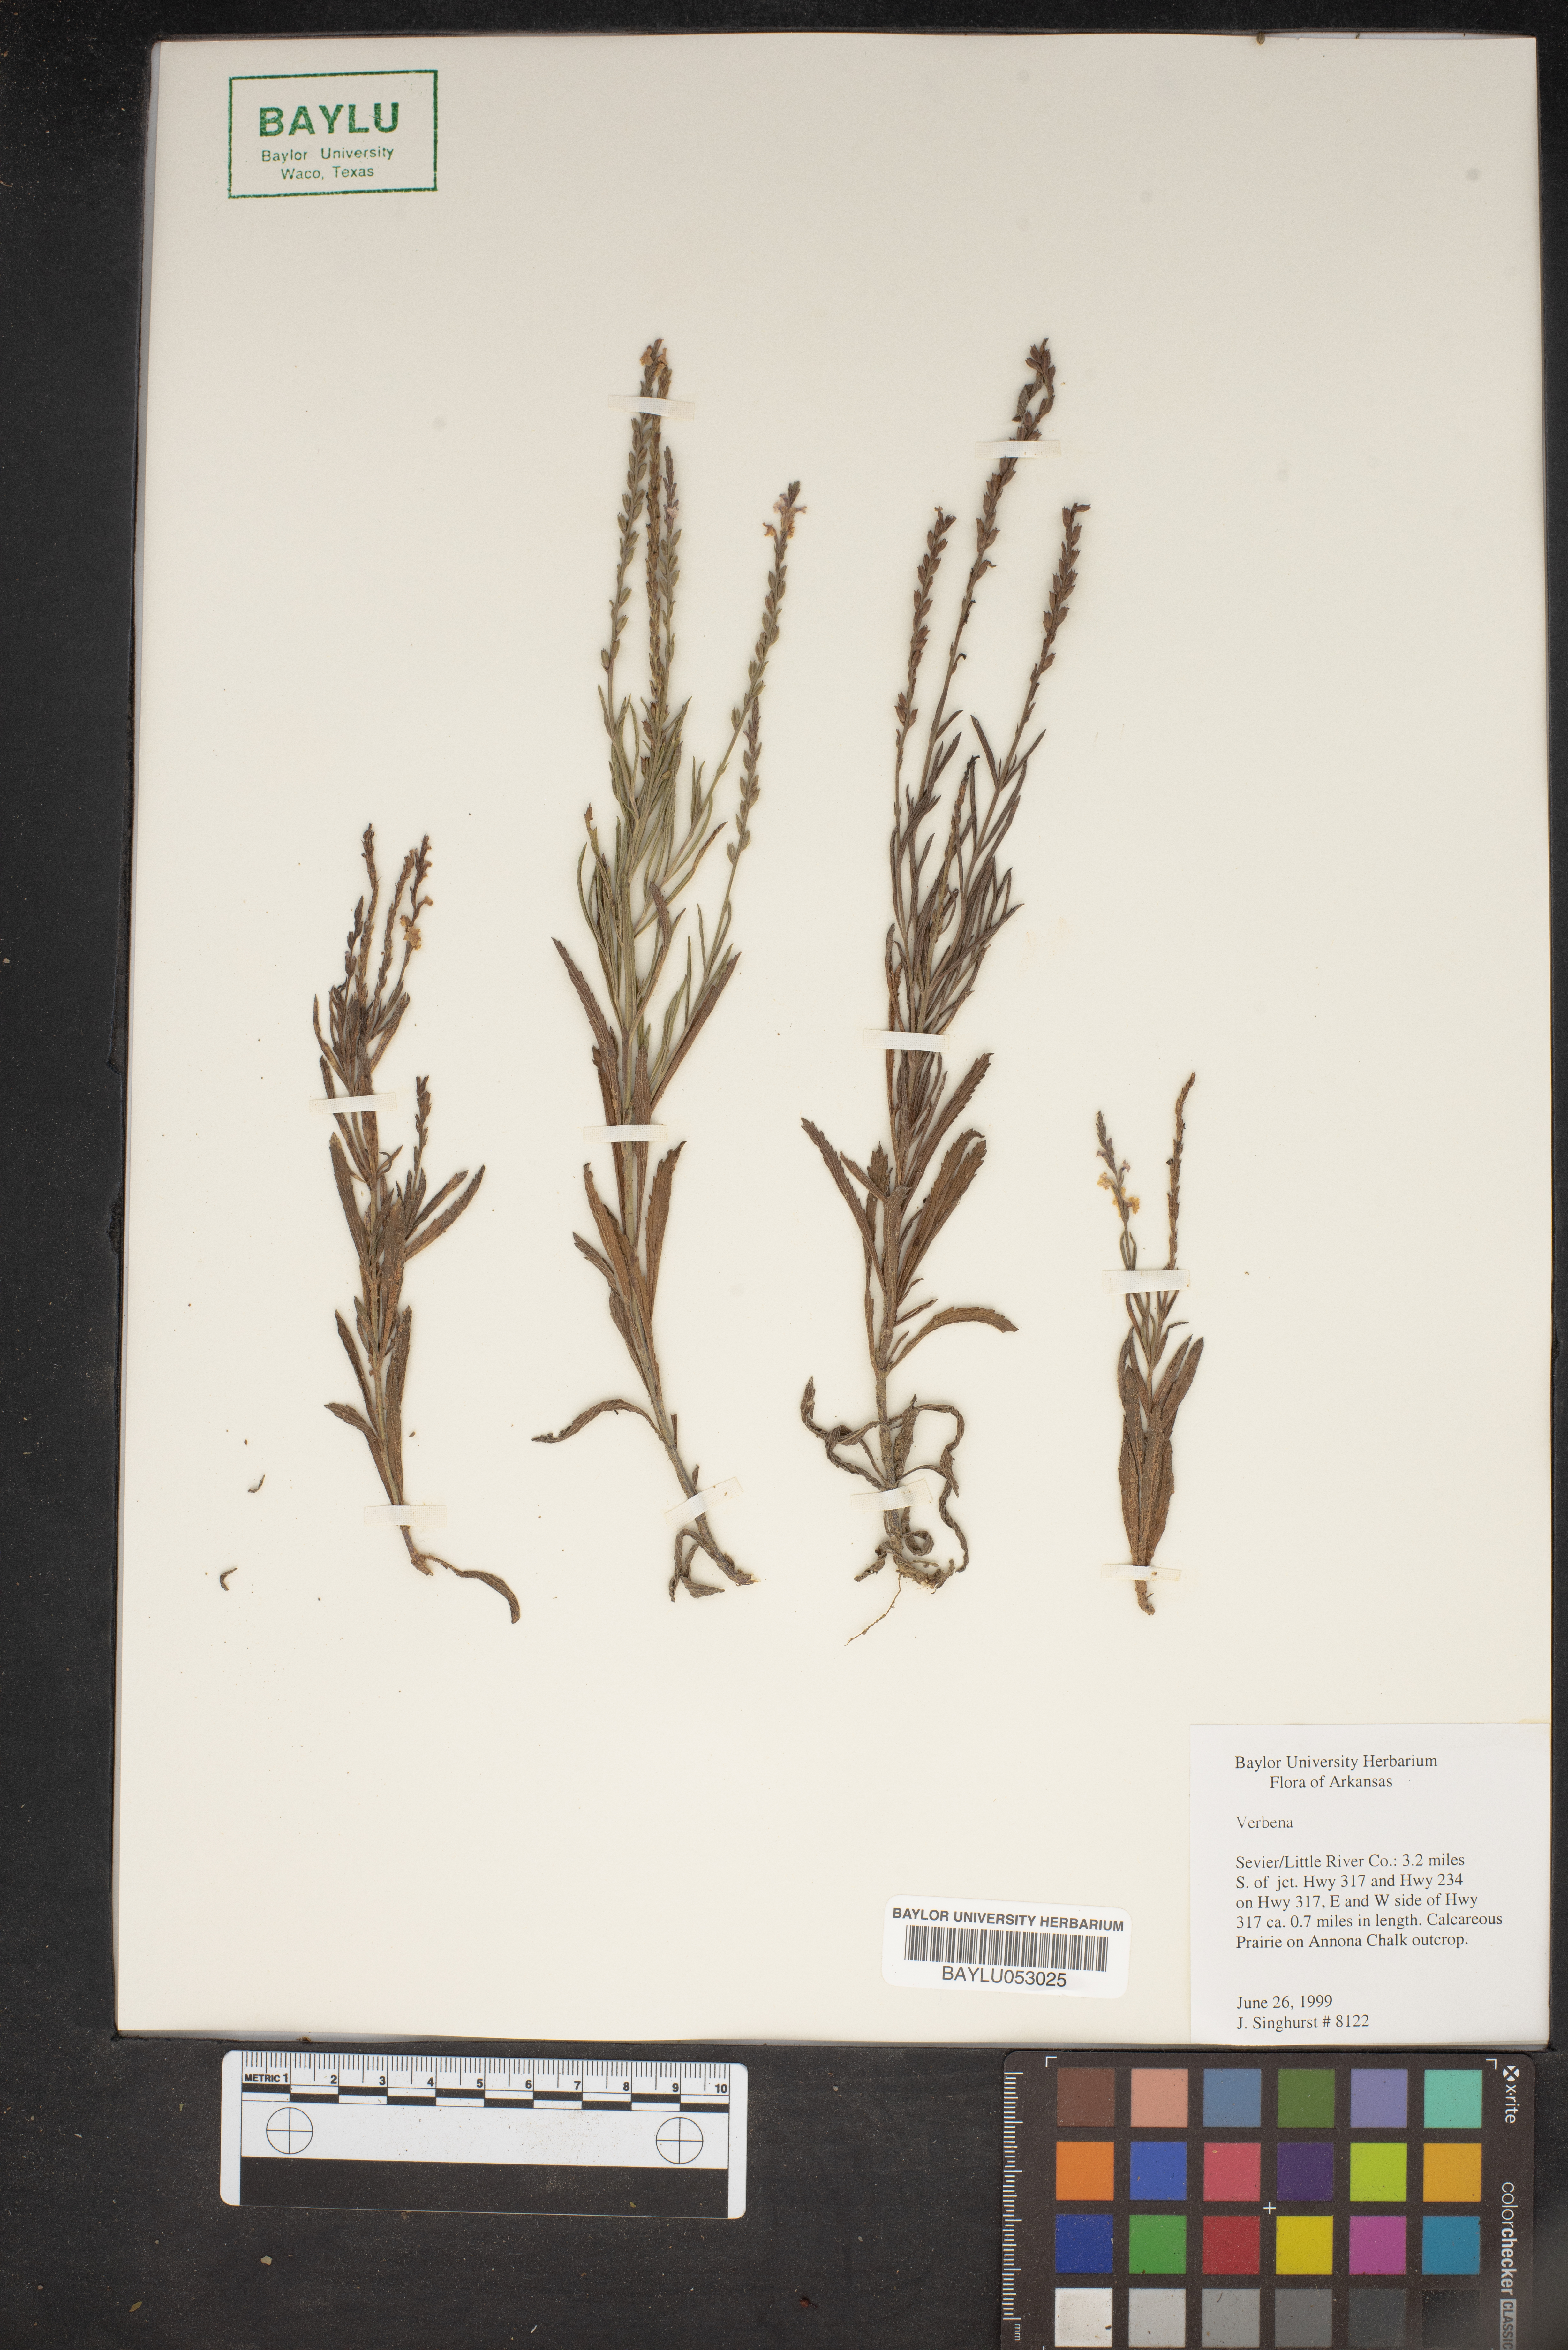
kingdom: Plantae
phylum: Tracheophyta
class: Magnoliopsida
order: Lamiales
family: Verbenaceae
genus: Verbena
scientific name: Verbena
